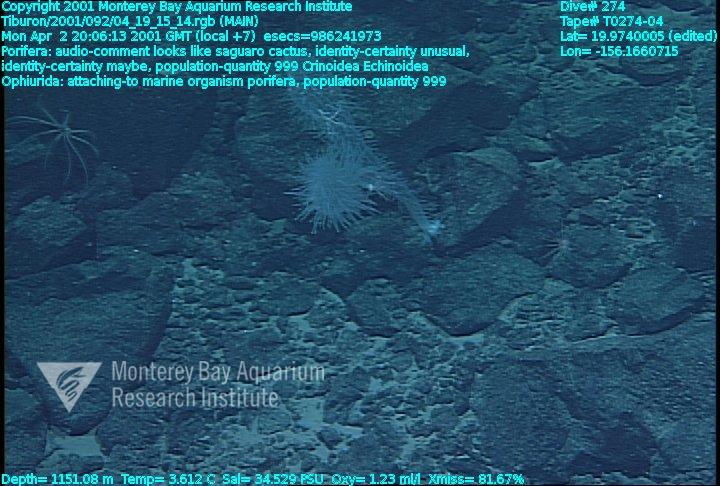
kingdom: Animalia
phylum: Porifera
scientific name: Porifera
